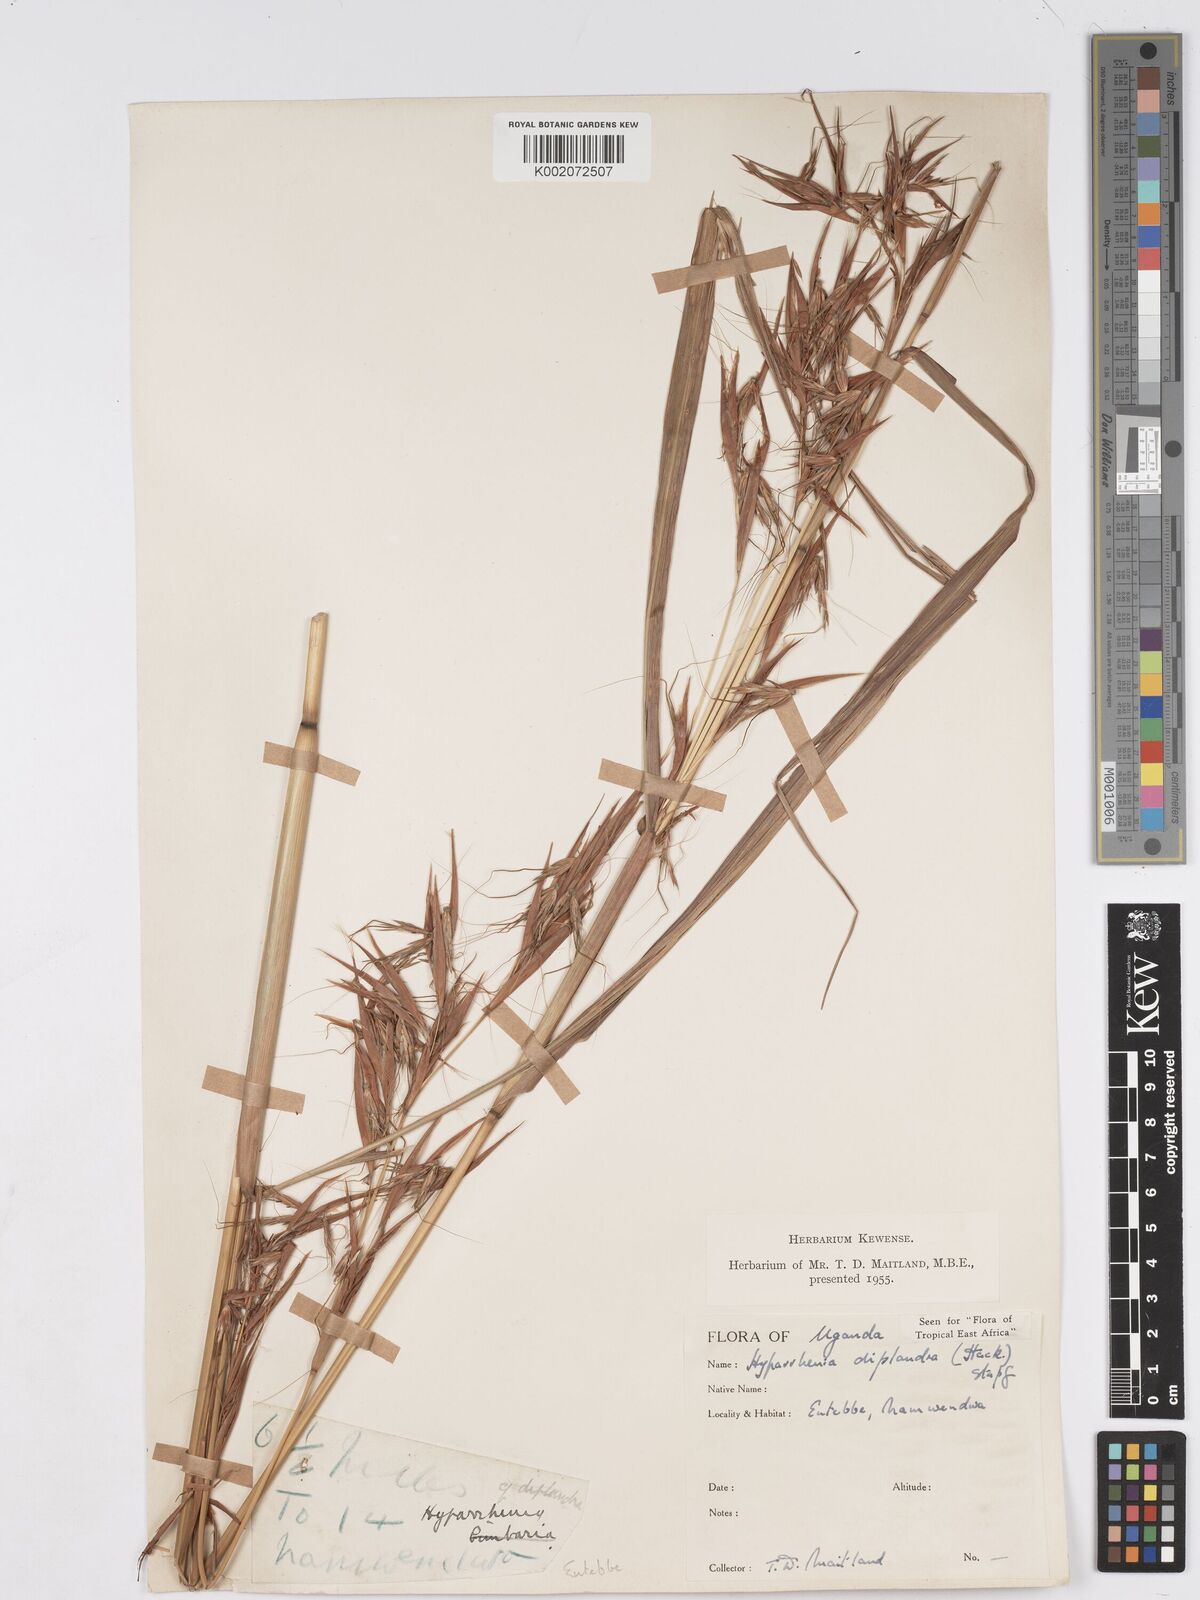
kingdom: Plantae
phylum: Tracheophyta
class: Liliopsida
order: Poales
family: Poaceae
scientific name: Poaceae
